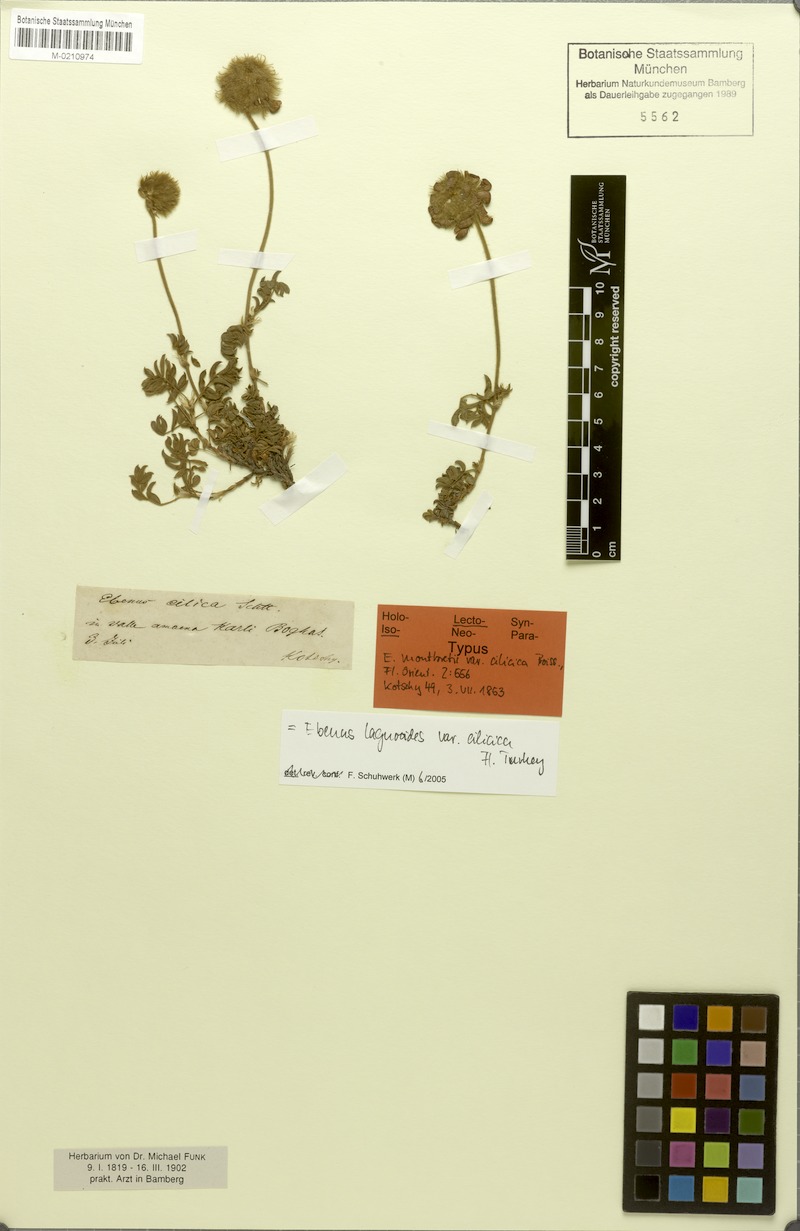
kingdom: Plantae
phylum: Tracheophyta
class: Magnoliopsida
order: Fabales
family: Fabaceae
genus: Ebenus
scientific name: Ebenus laguroides
